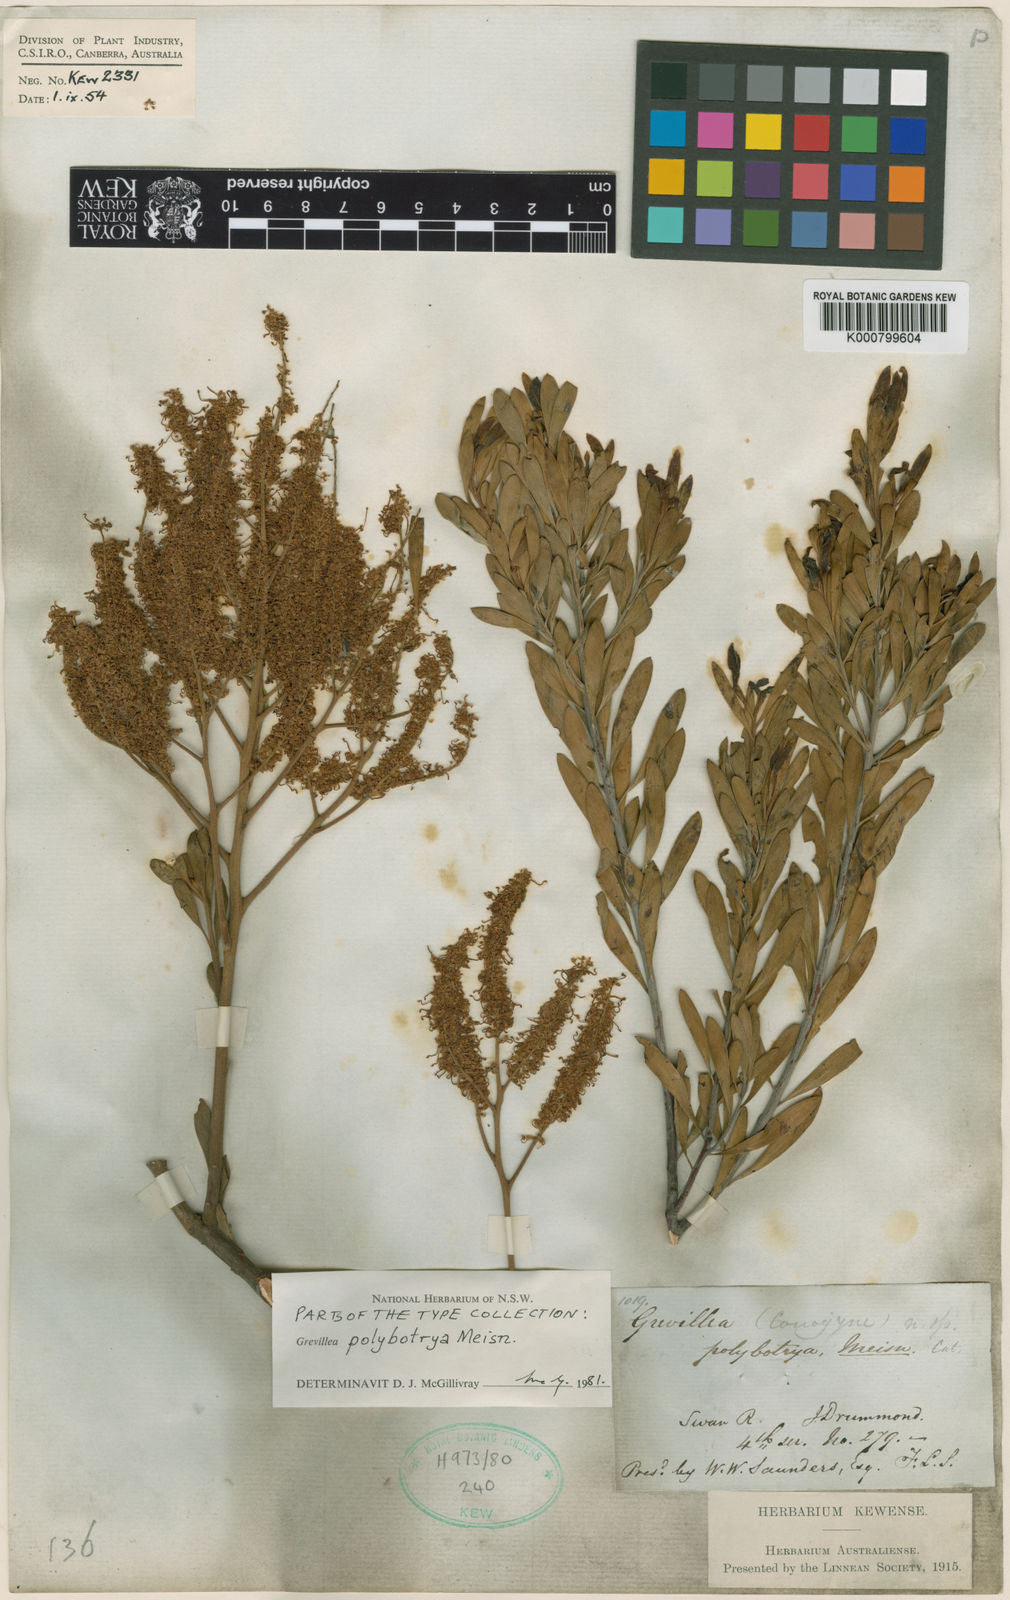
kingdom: Plantae
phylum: Tracheophyta
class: Magnoliopsida
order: Proteales
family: Proteaceae
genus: Grevillea
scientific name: Grevillea polybotrya
